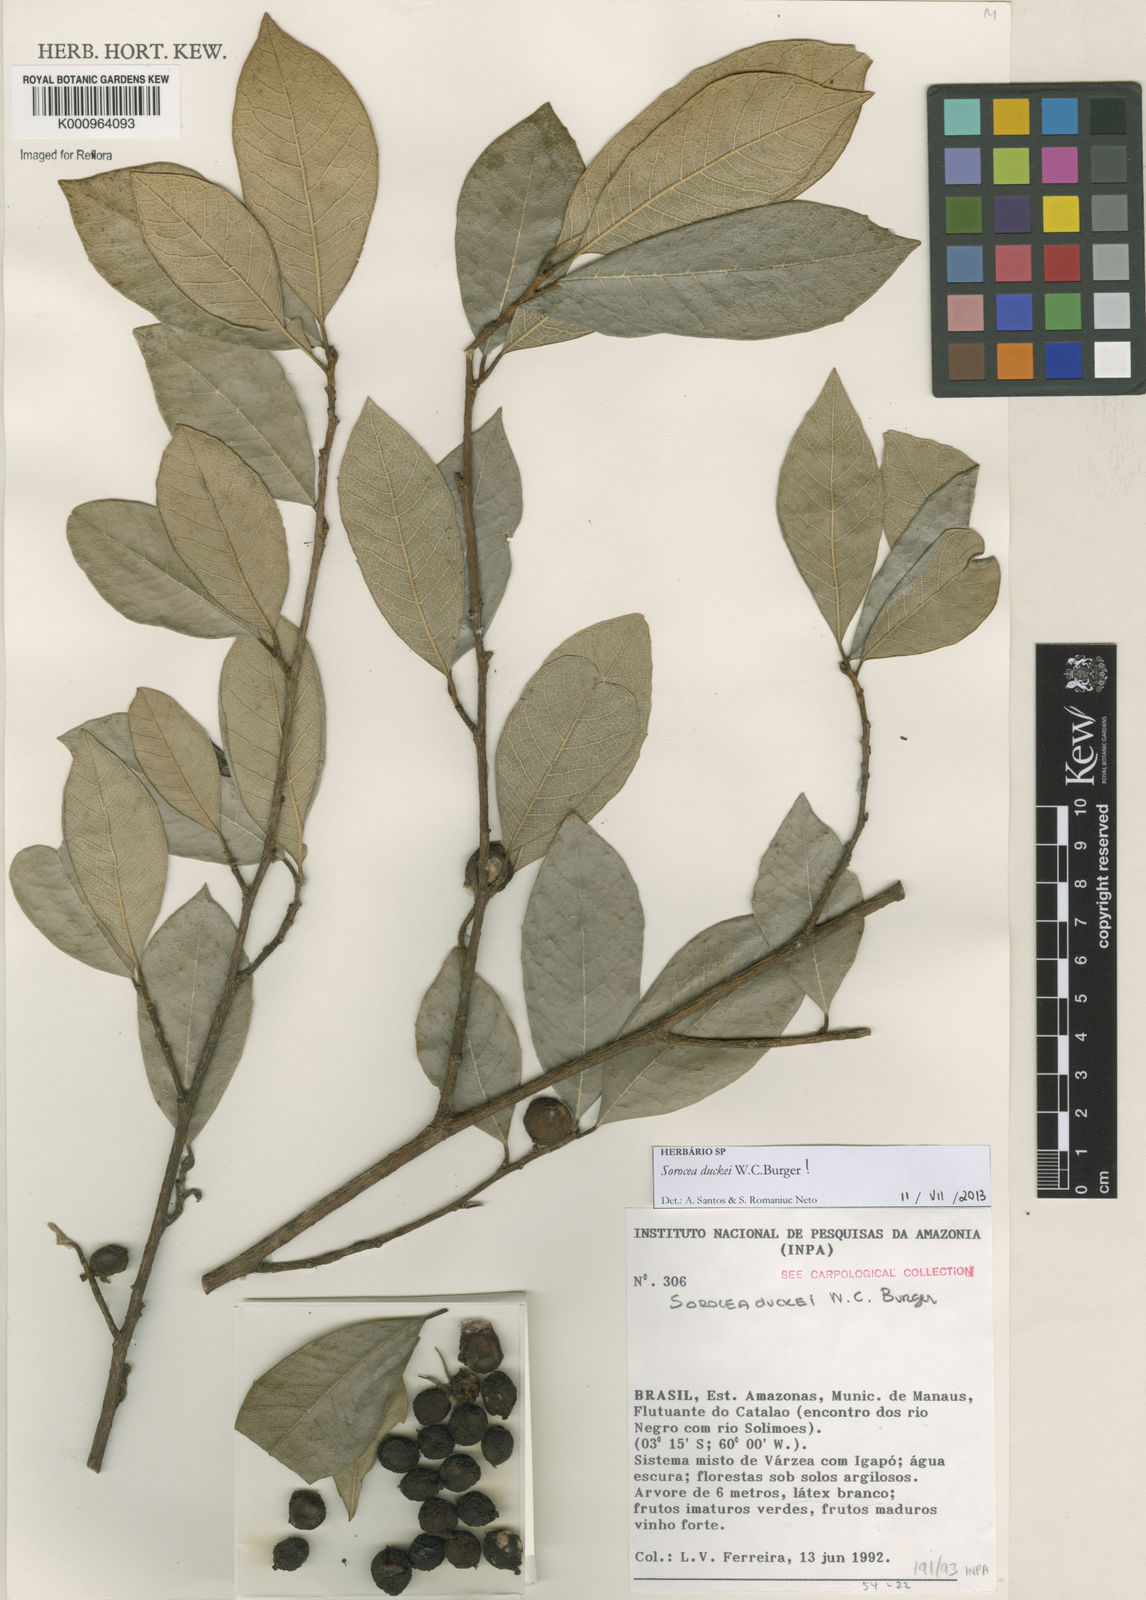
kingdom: Plantae
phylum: Tracheophyta
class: Magnoliopsida
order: Rosales
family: Moraceae
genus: Sorocea
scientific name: Sorocea duckei
